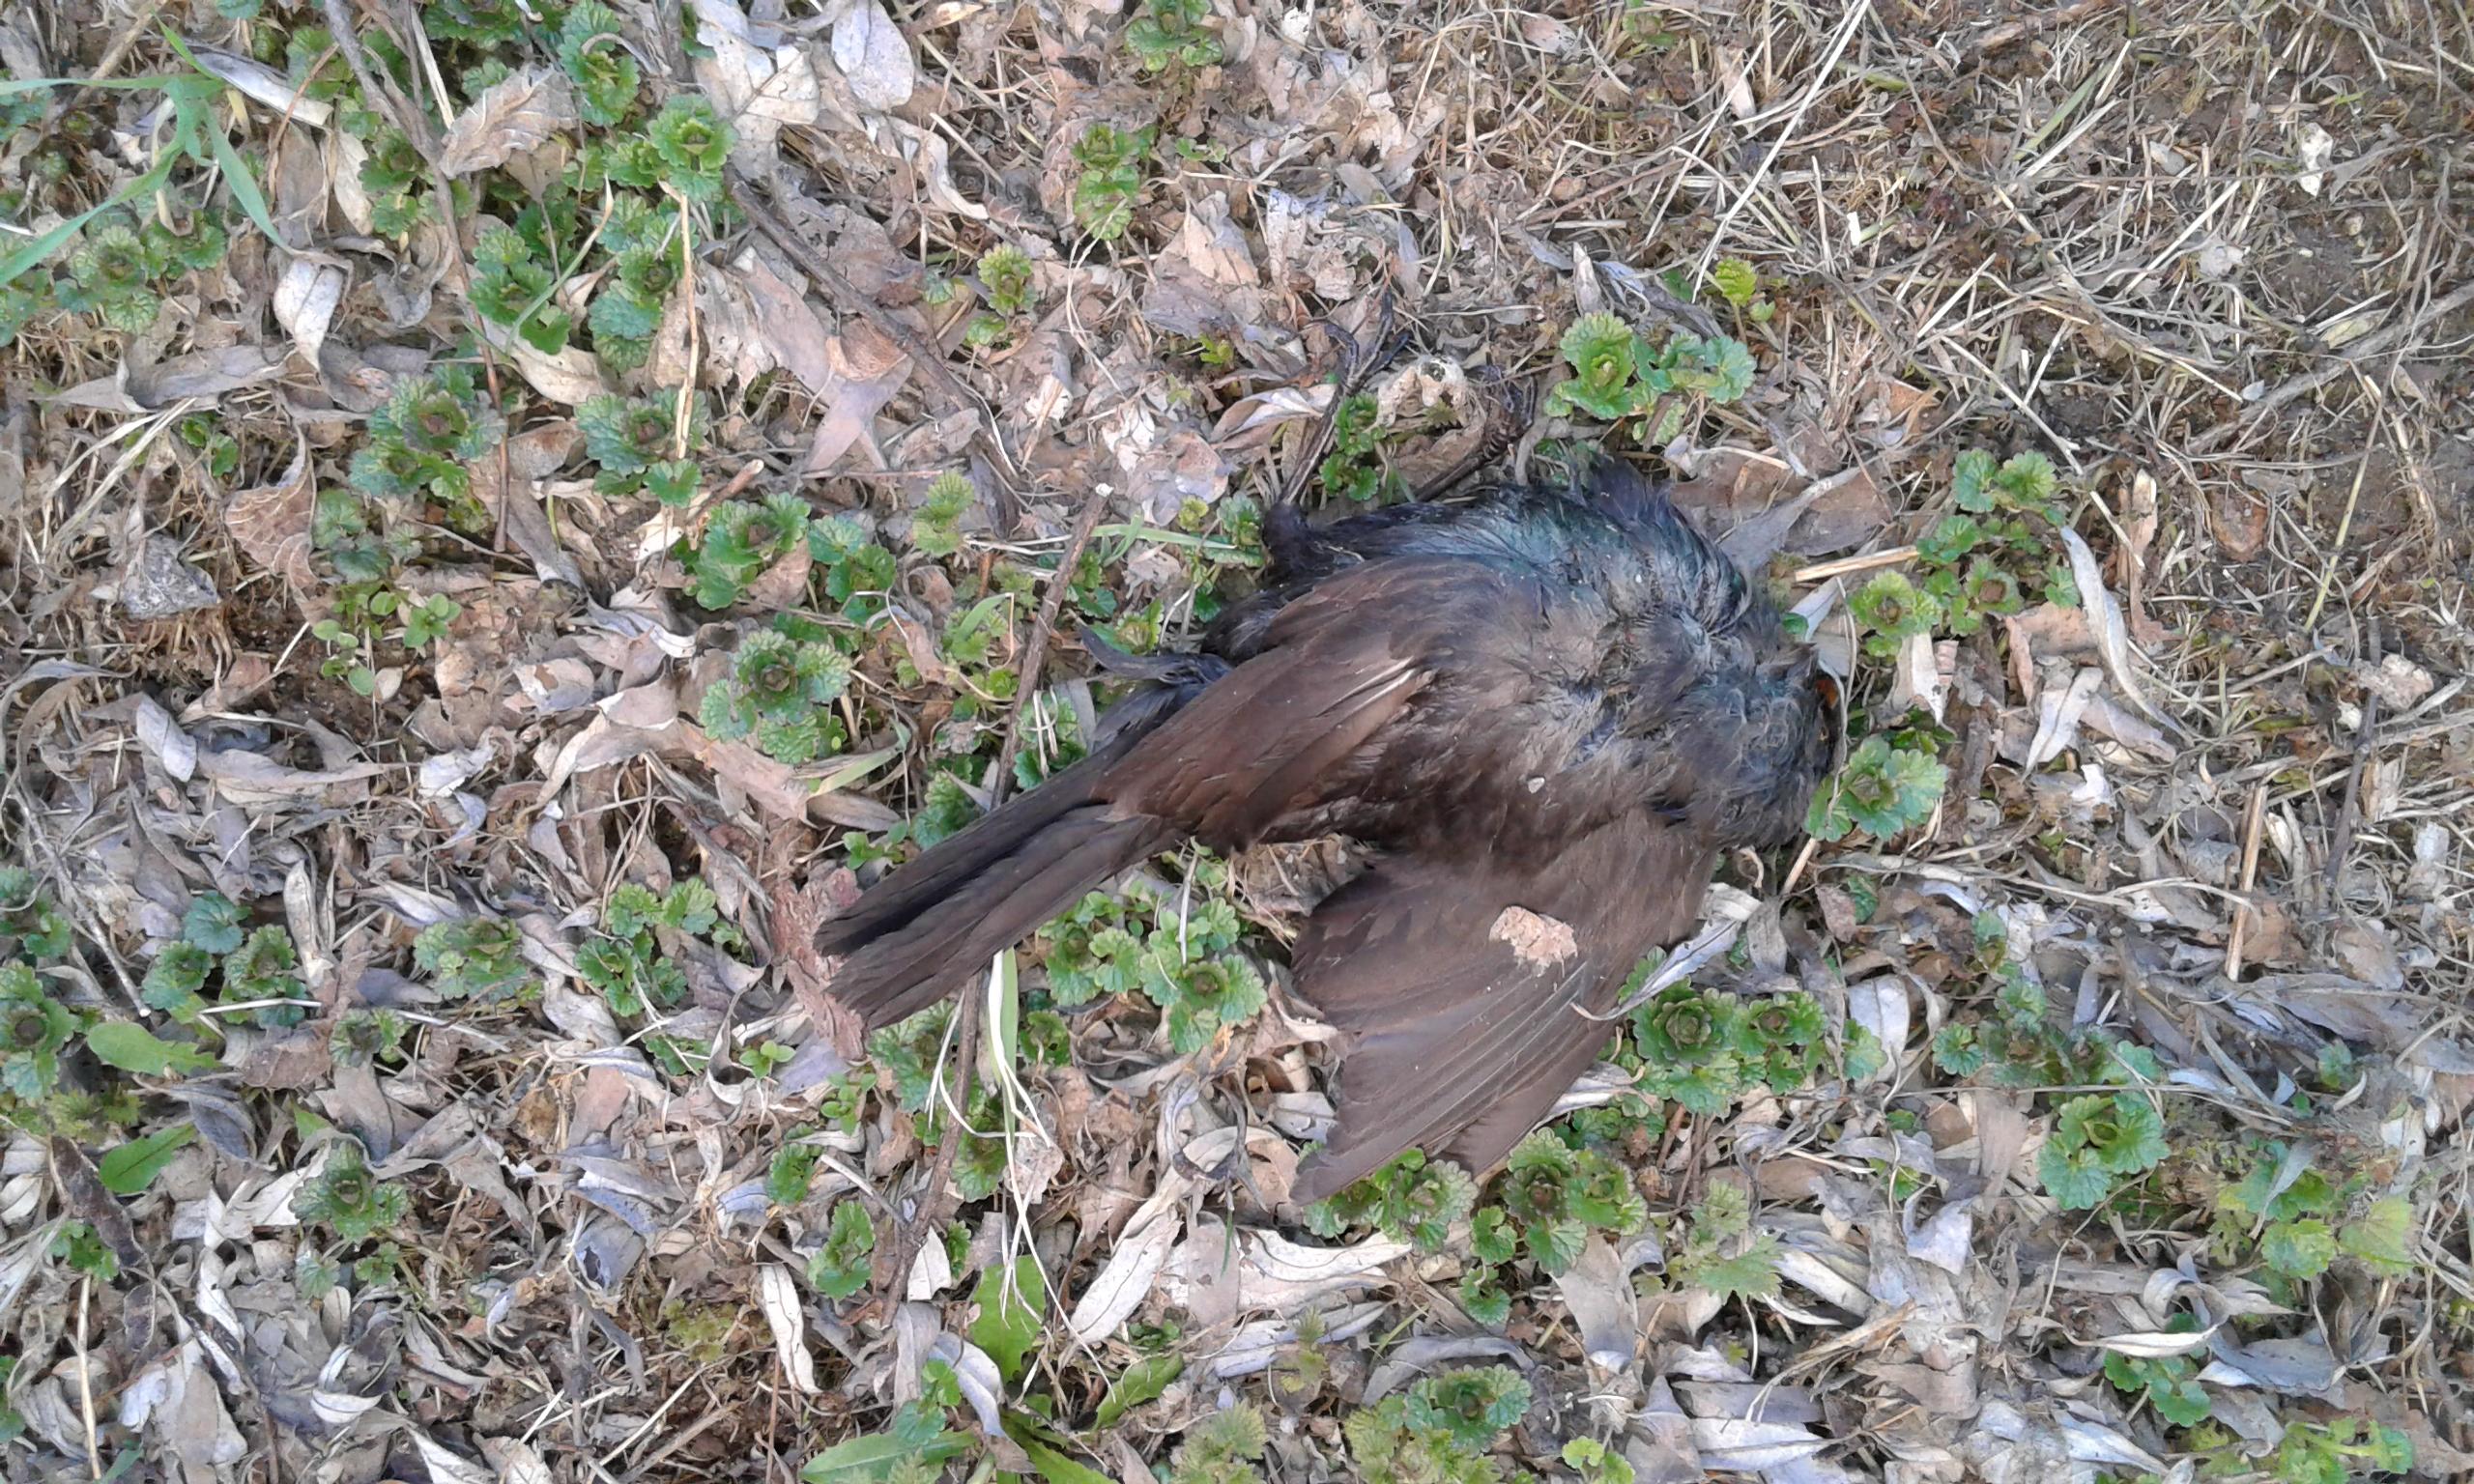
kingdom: Animalia
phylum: Chordata
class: Aves
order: Passeriformes
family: Turdidae
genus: Turdus
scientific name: Turdus merula
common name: Common blackbird
